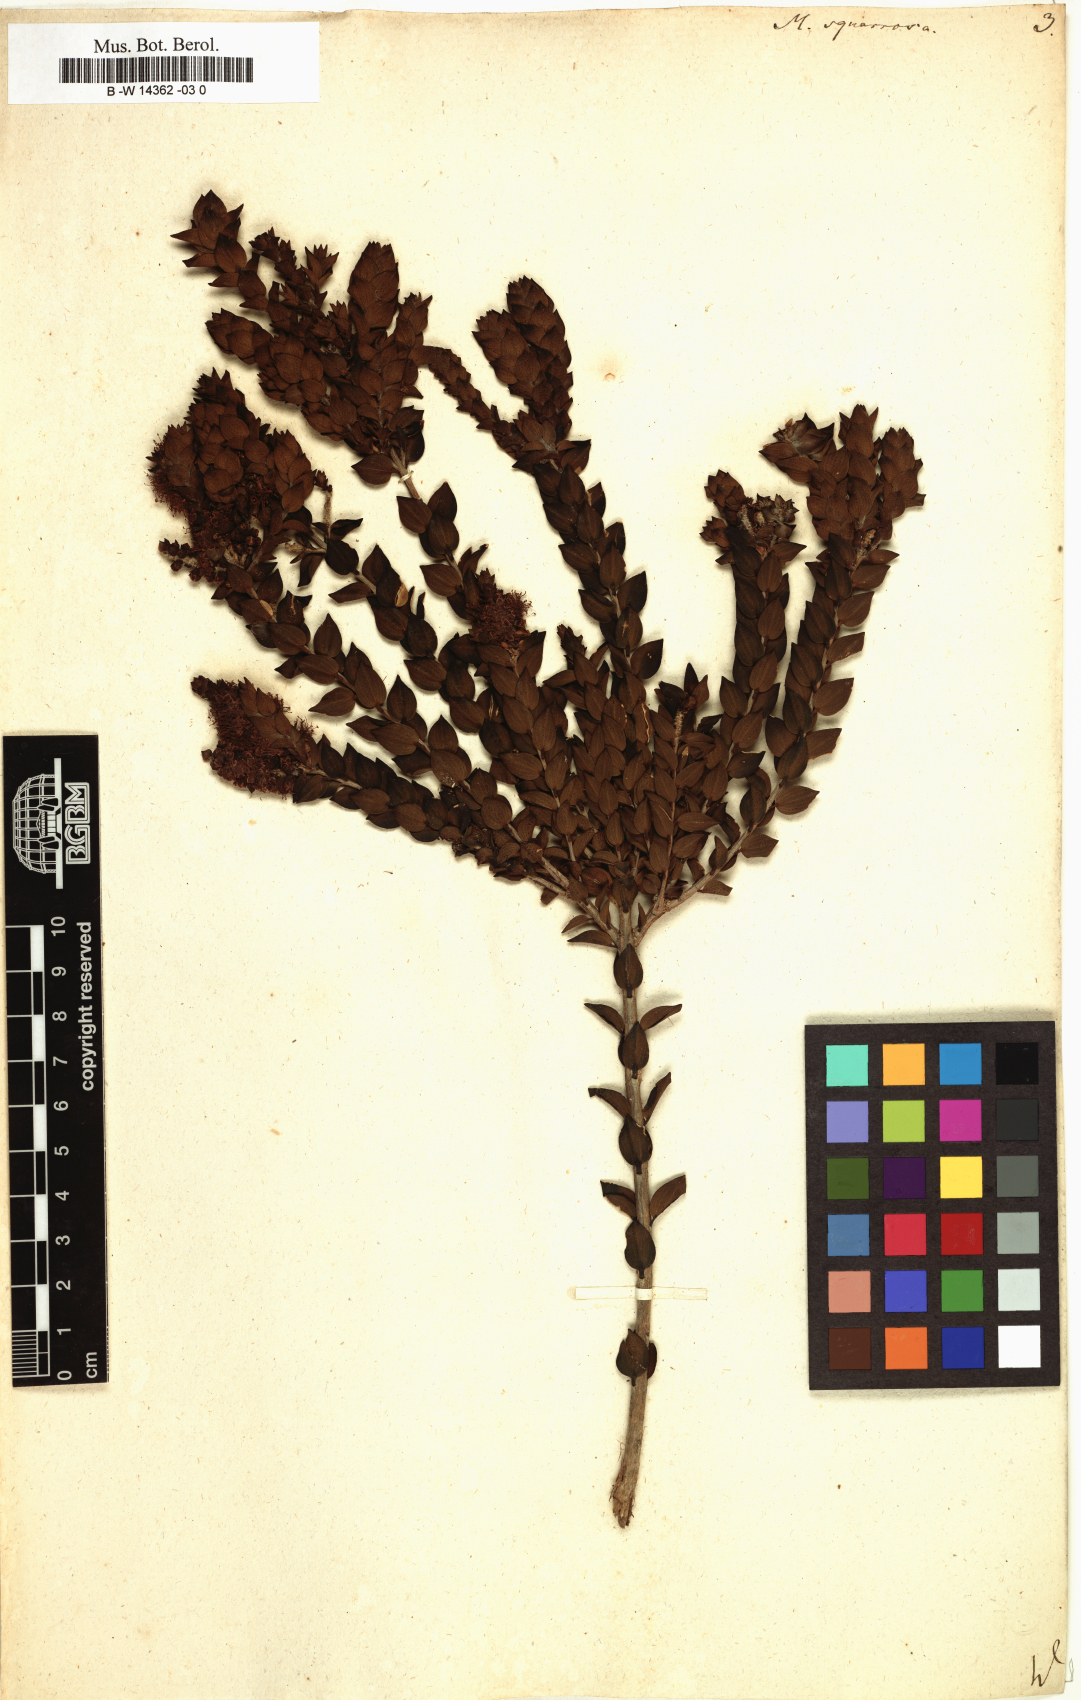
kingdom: Plantae
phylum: Tracheophyta
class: Magnoliopsida
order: Myrtales
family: Myrtaceae
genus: Melaleuca
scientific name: Melaleuca squarrosa
